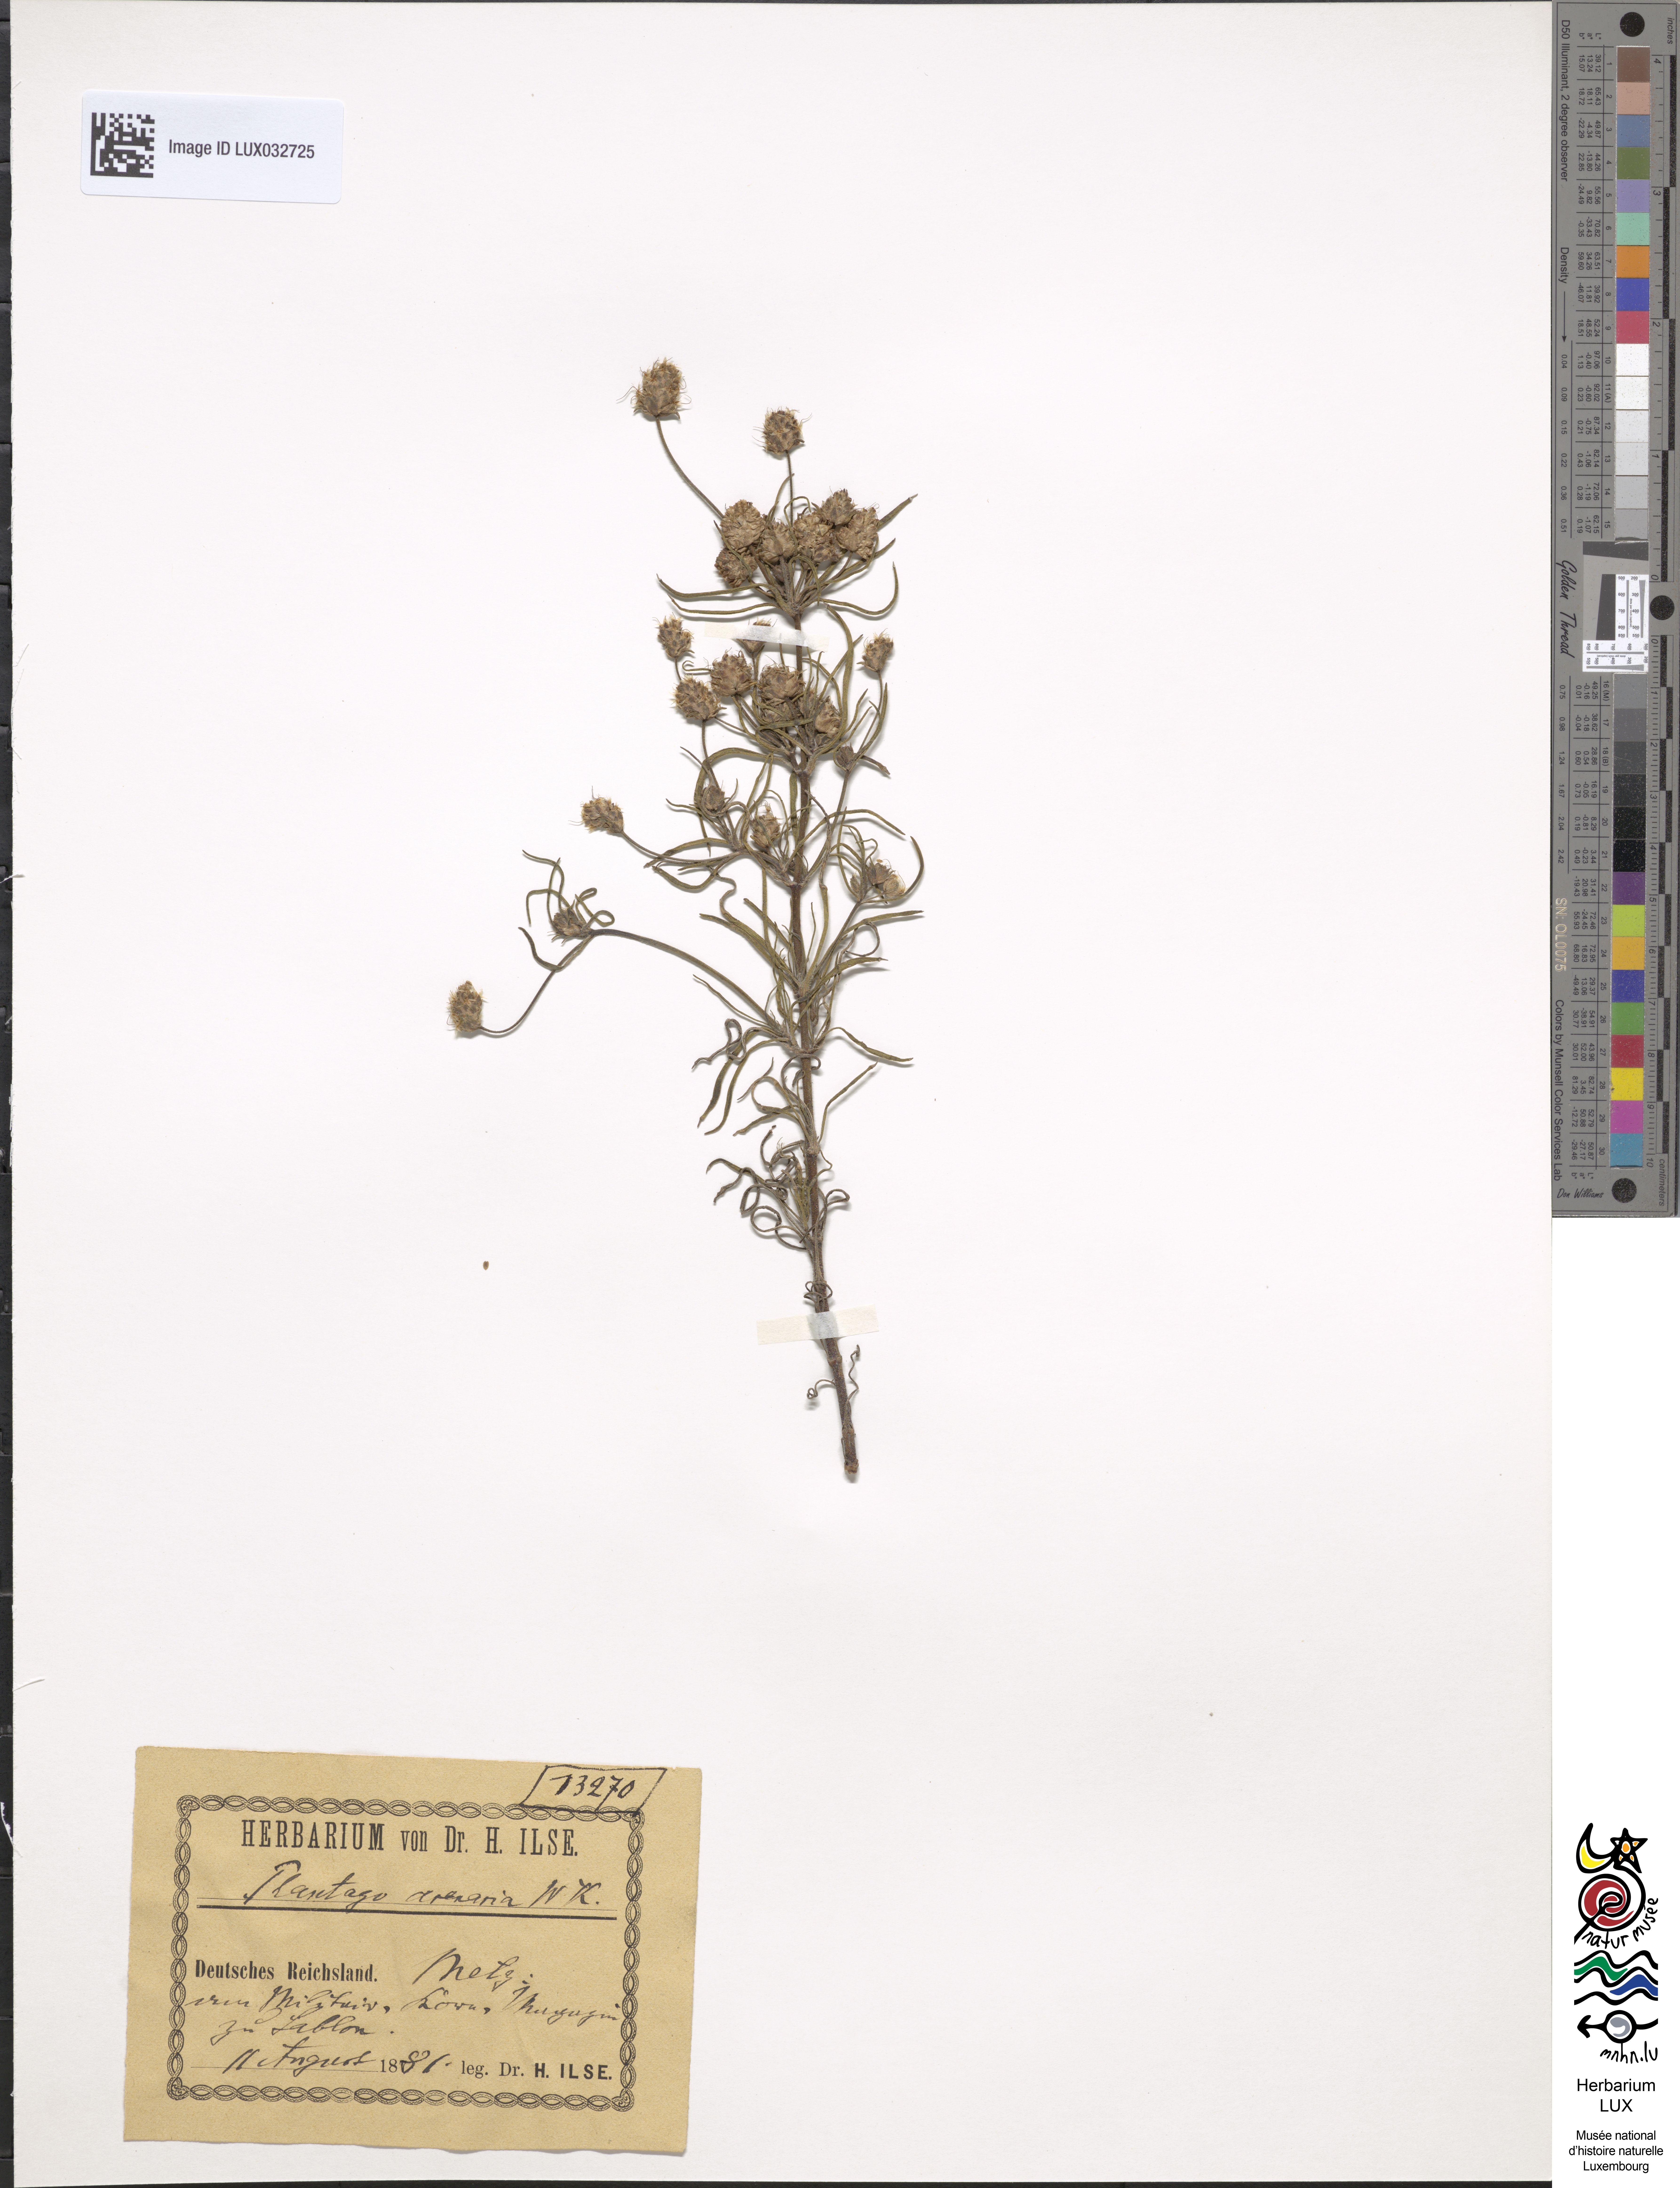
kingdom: Plantae
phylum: Tracheophyta
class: Magnoliopsida
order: Lamiales
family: Plantaginaceae
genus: Plantago
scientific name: Plantago arenaria
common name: Branched plantain
